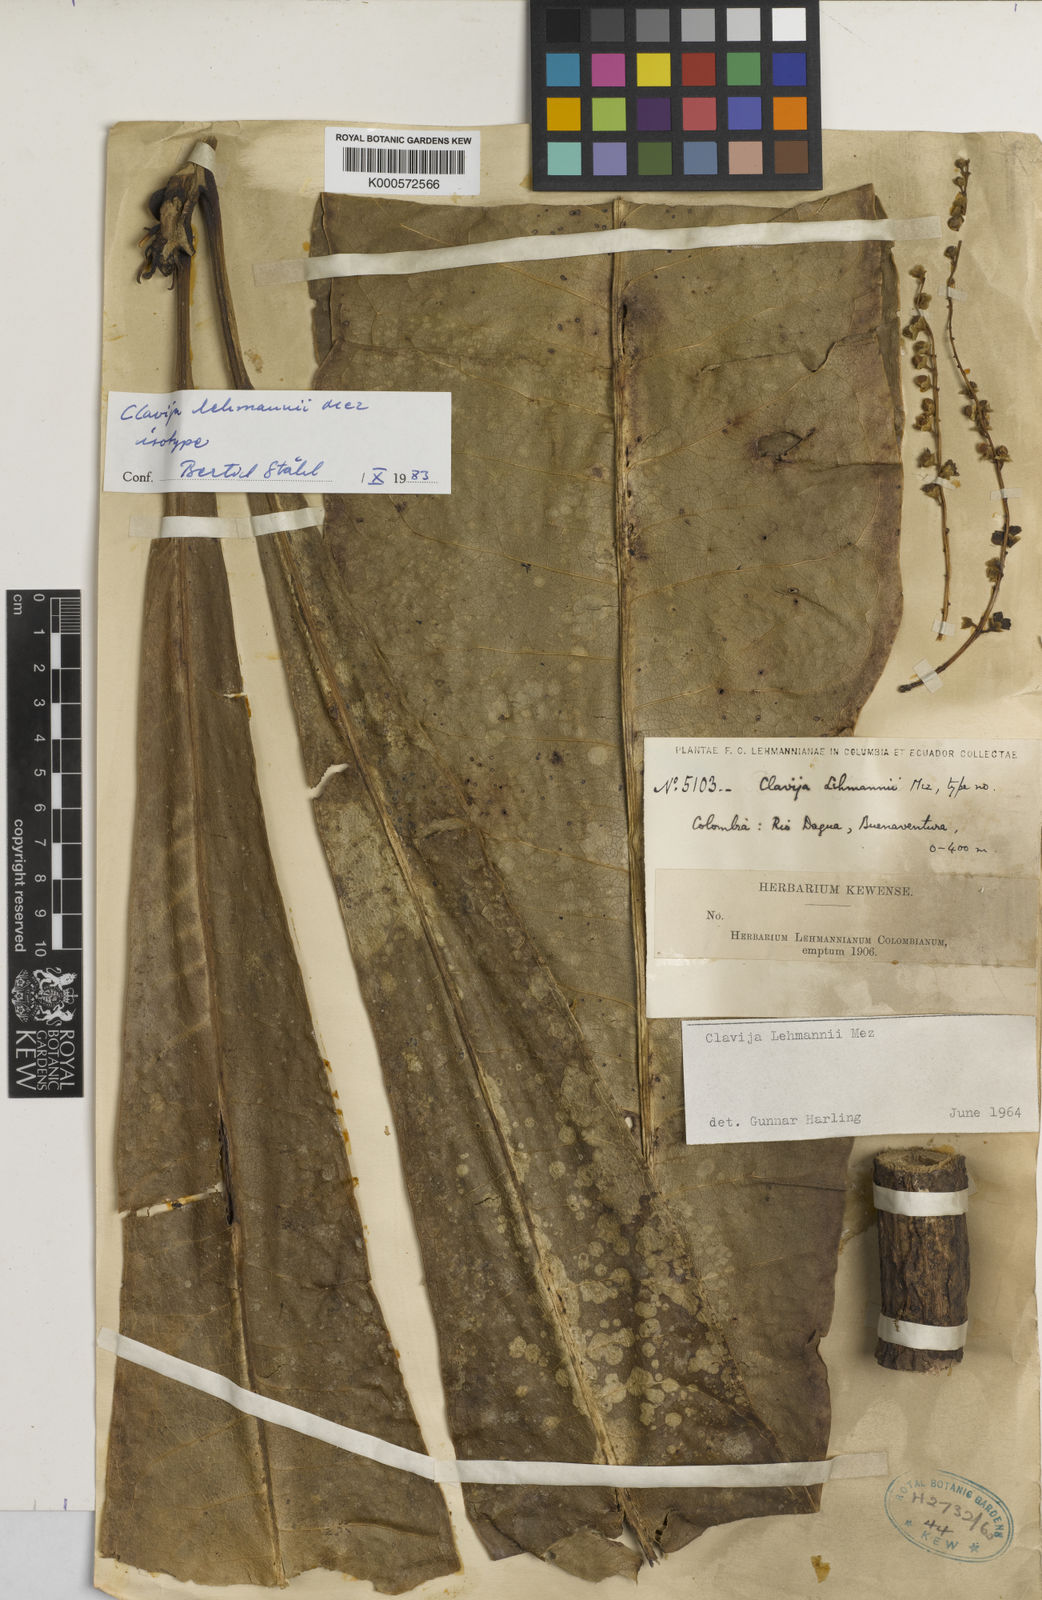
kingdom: Plantae
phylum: Tracheophyta
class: Magnoliopsida
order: Ericales
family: Primulaceae
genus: Clavija
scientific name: Clavija lehmannii
